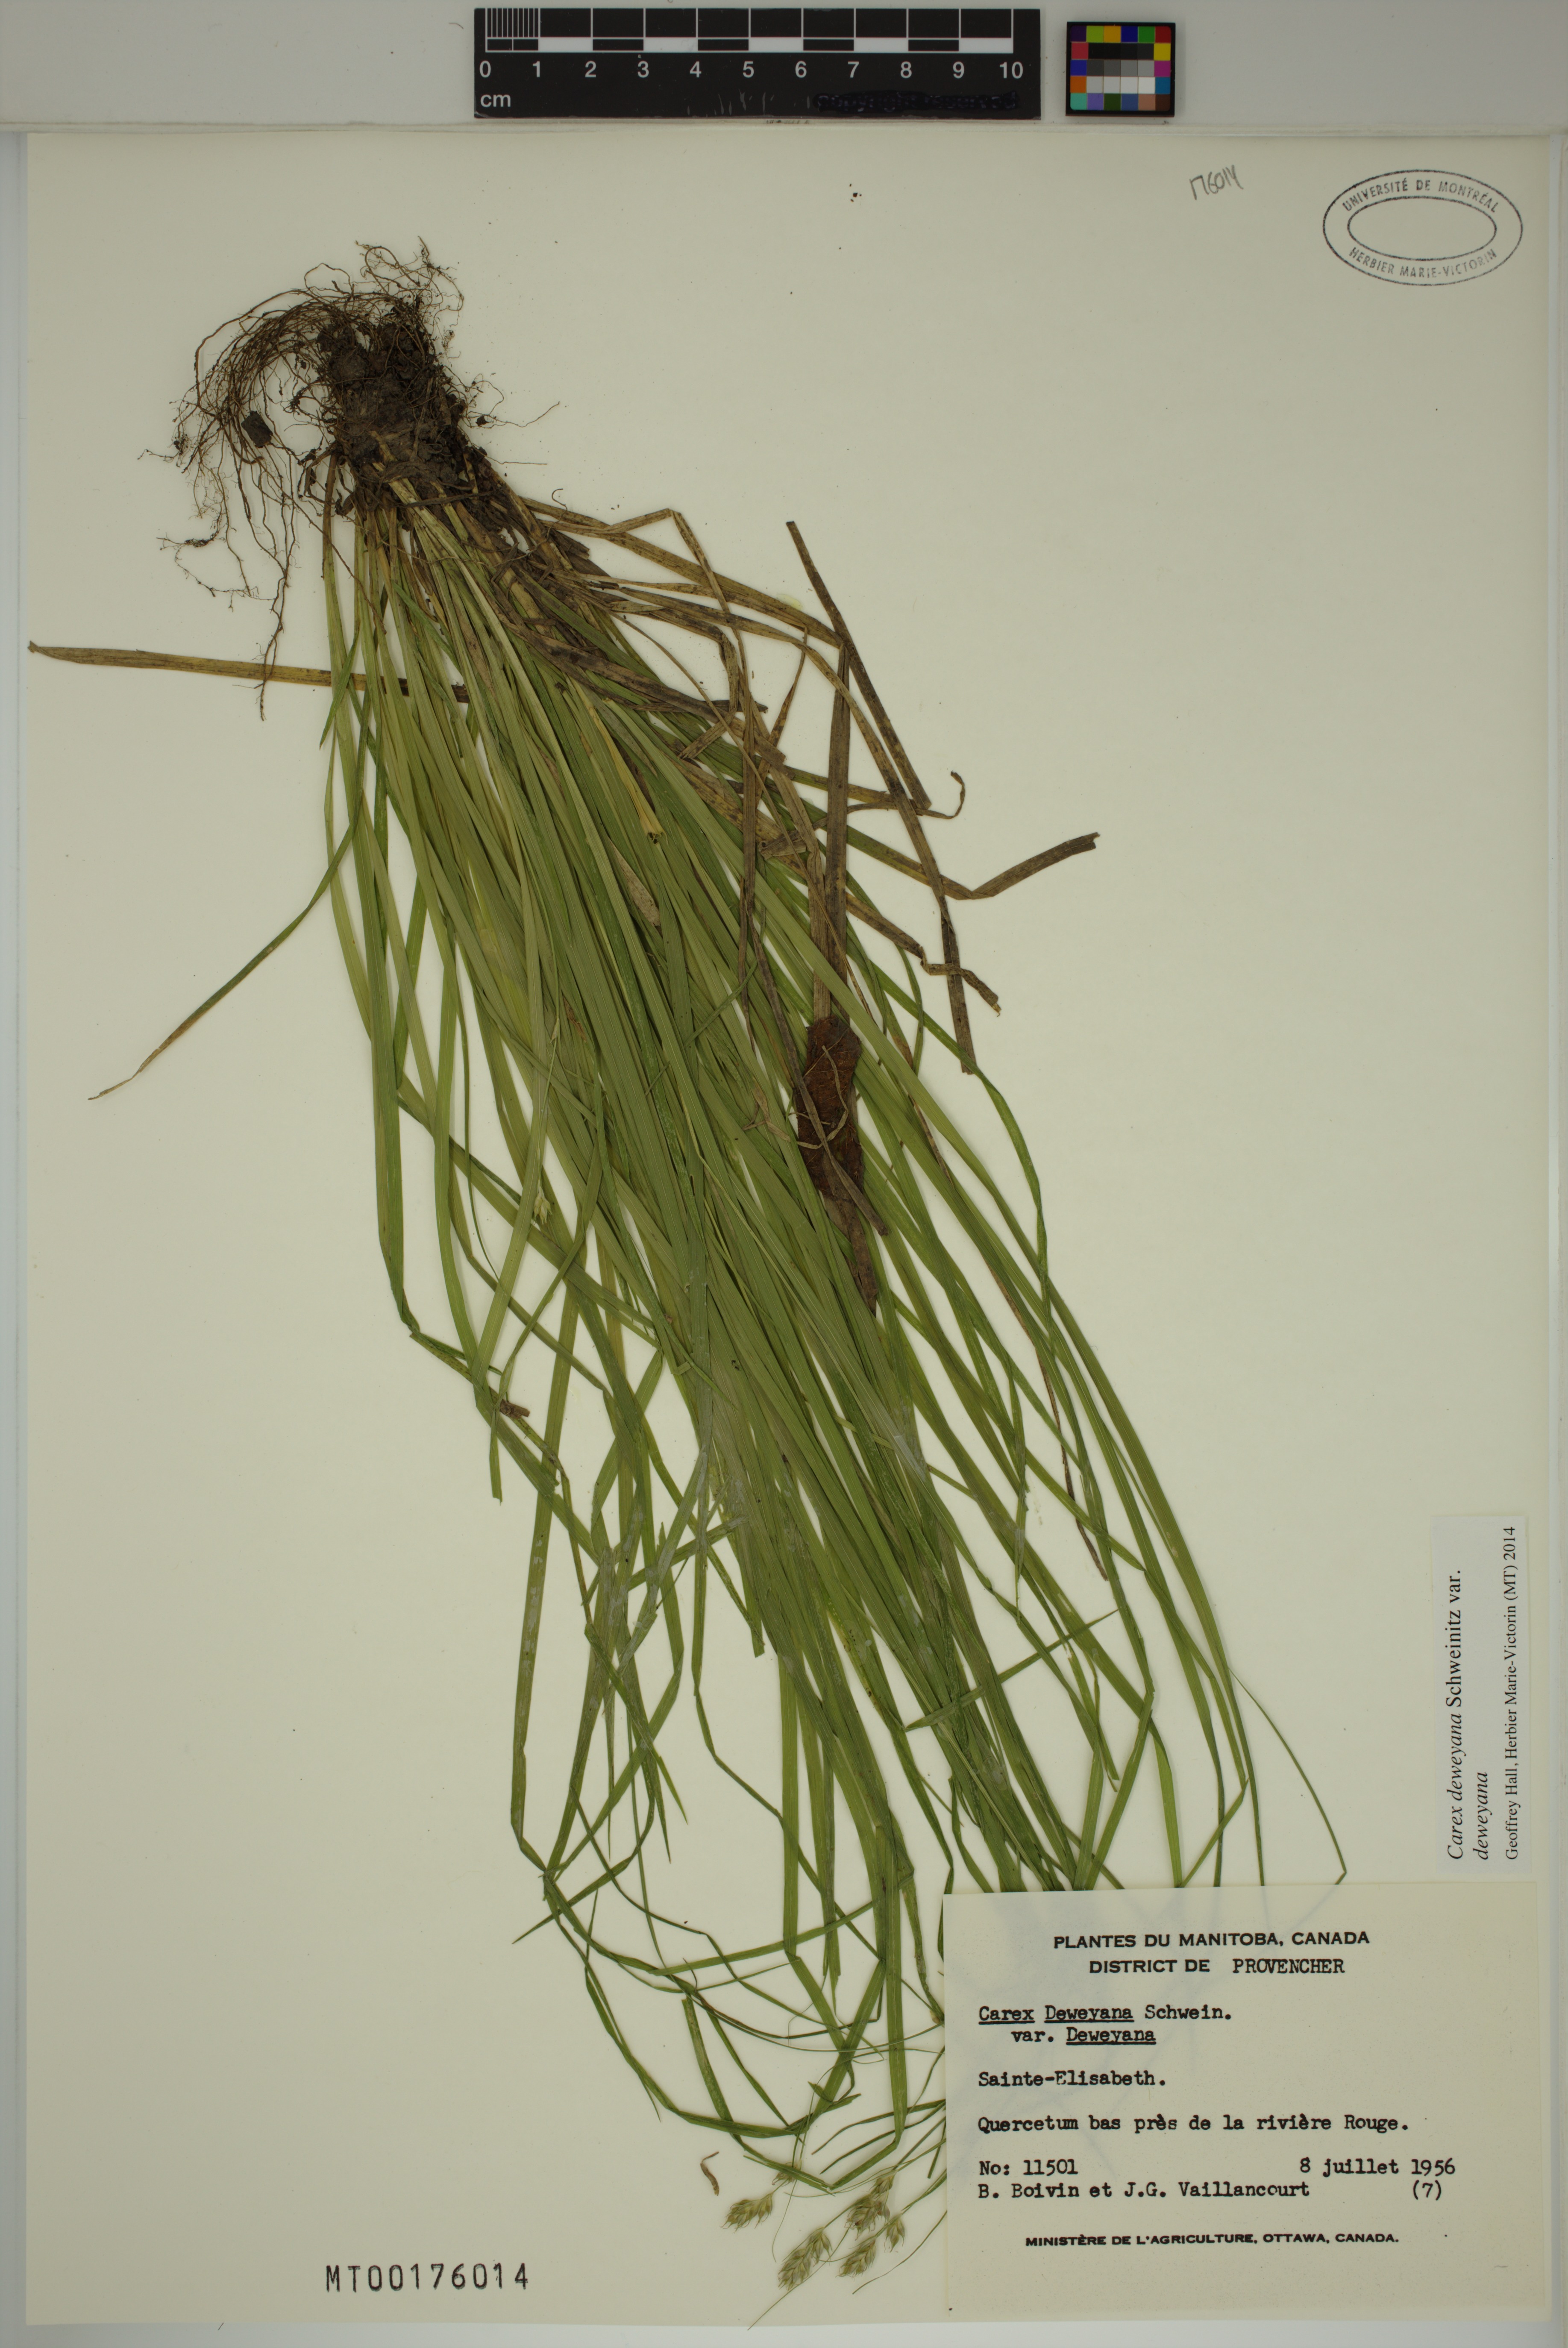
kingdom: Plantae
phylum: Tracheophyta
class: Liliopsida
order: Poales
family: Cyperaceae
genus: Carex
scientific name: Carex deweyana
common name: Dewey's sedge
